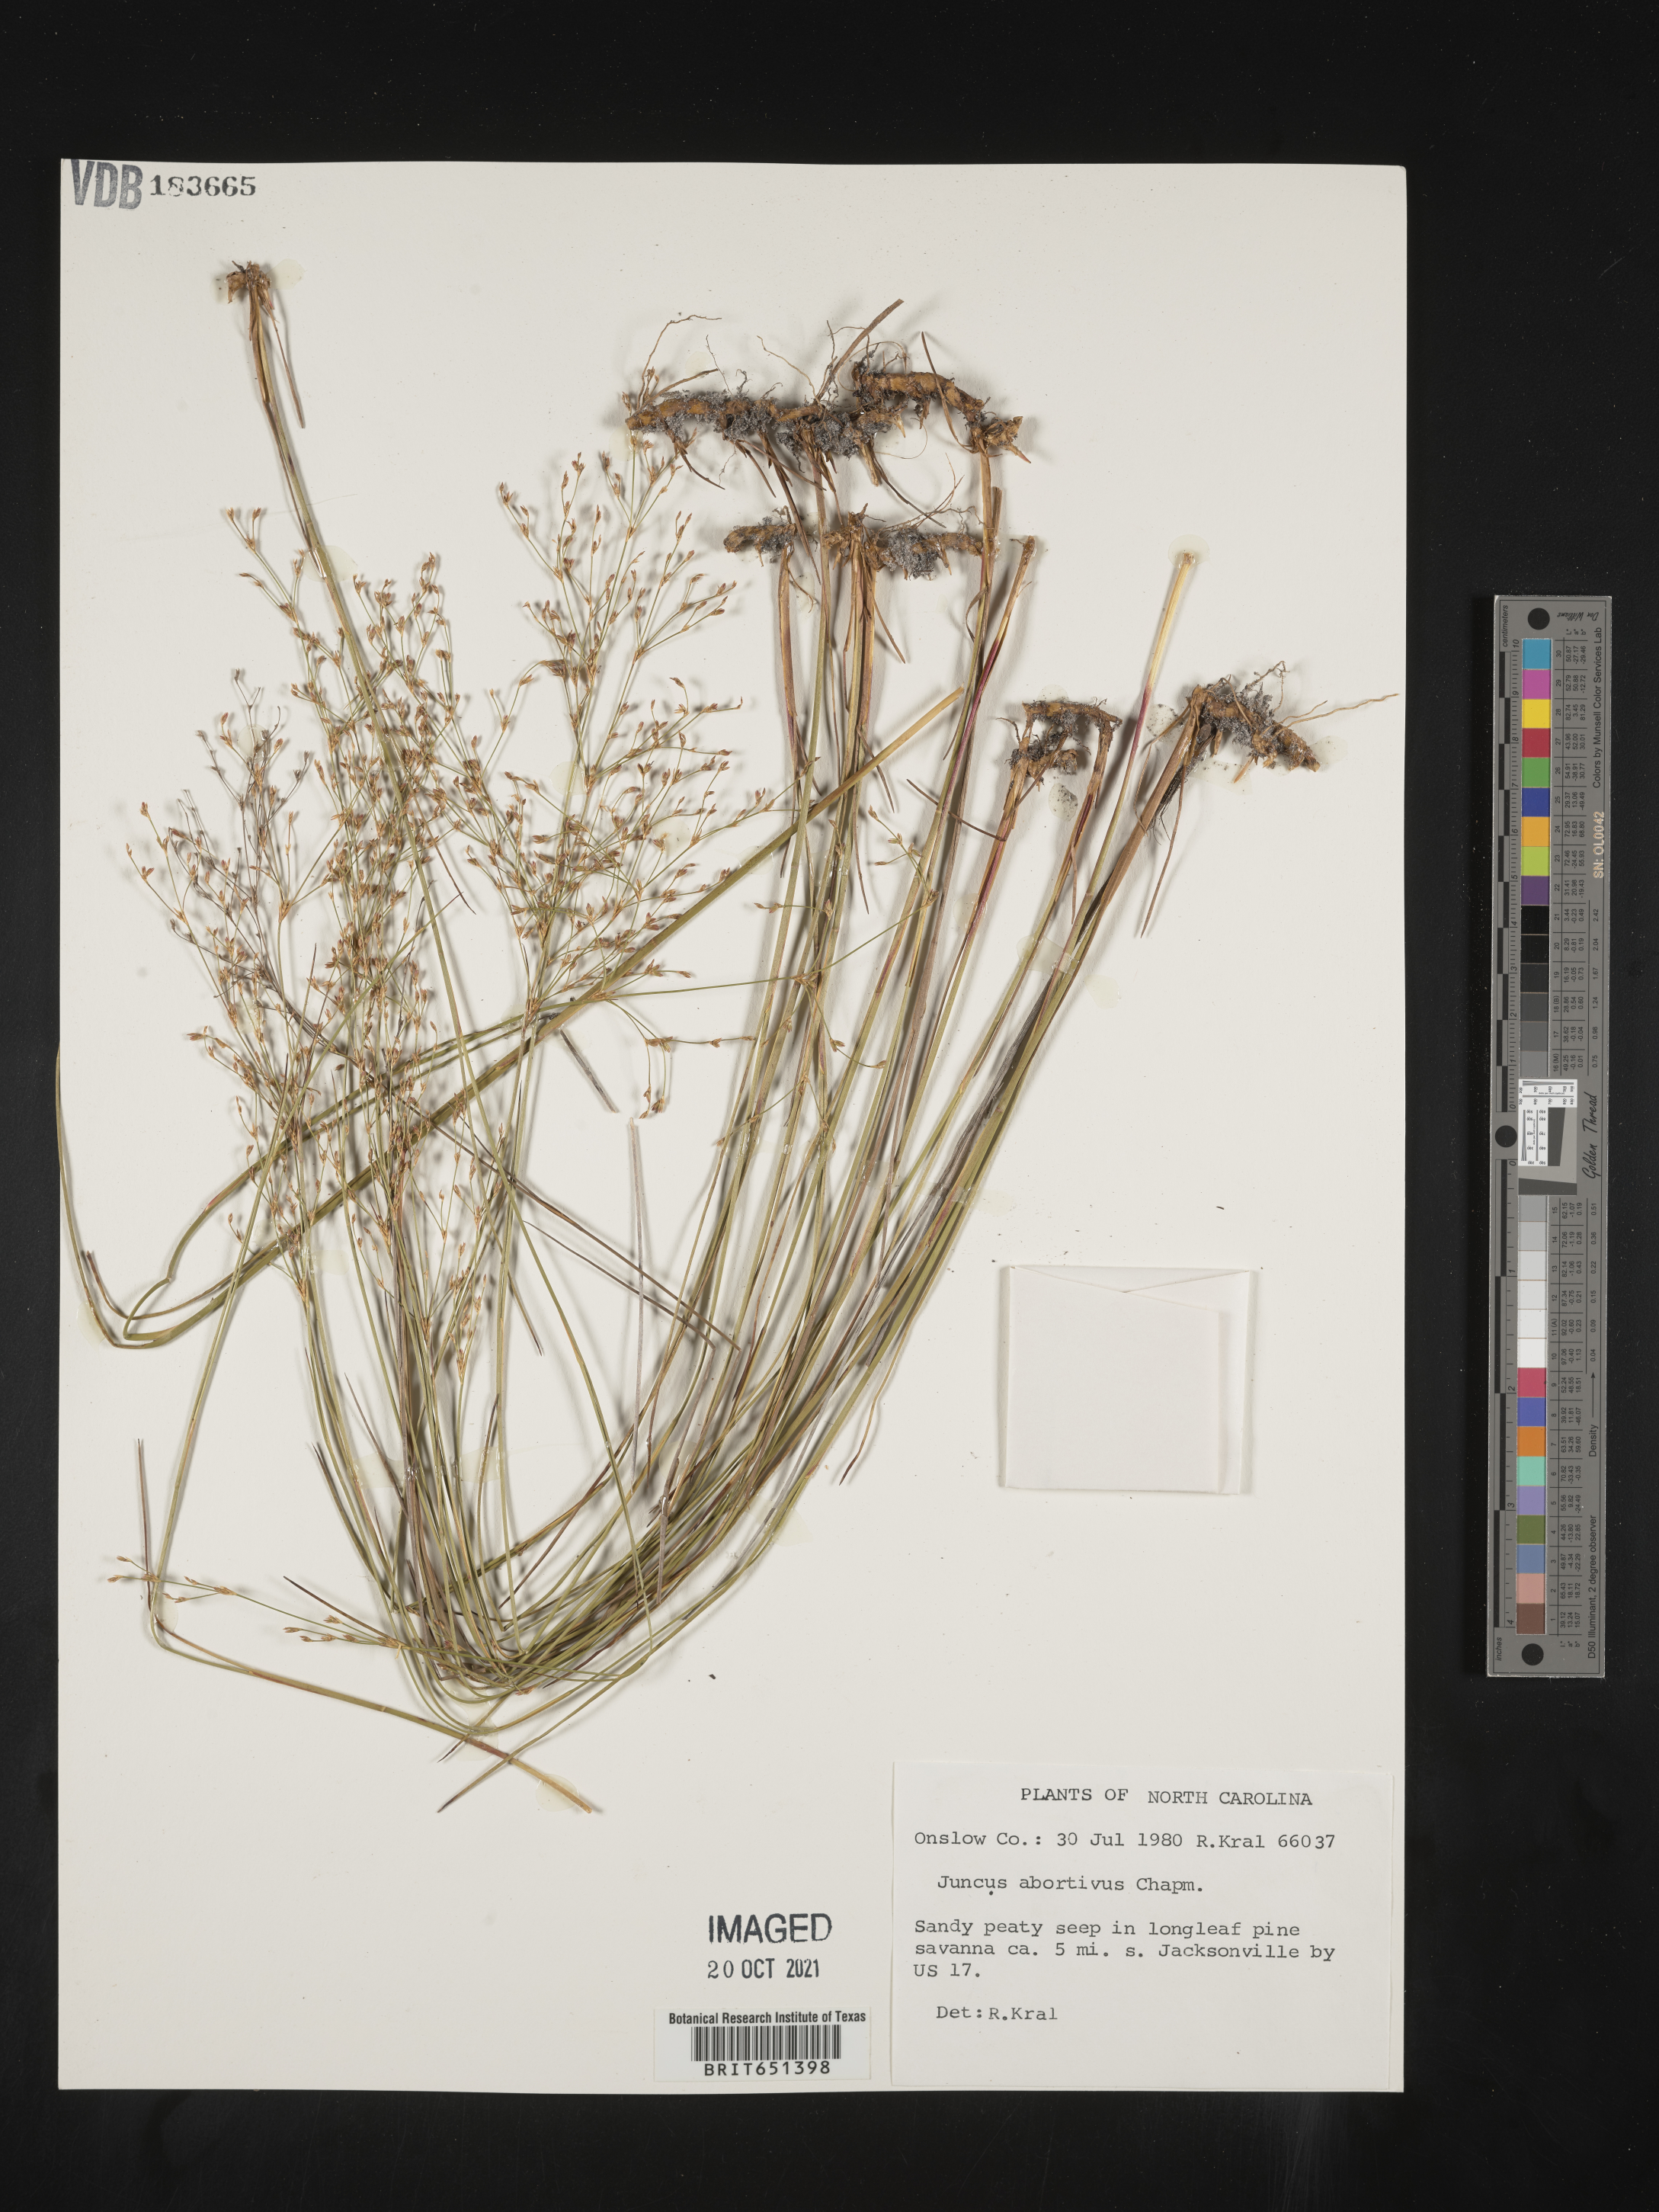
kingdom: Plantae
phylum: Tracheophyta
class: Liliopsida
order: Poales
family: Juncaceae
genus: Juncus
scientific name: Juncus abortivus
